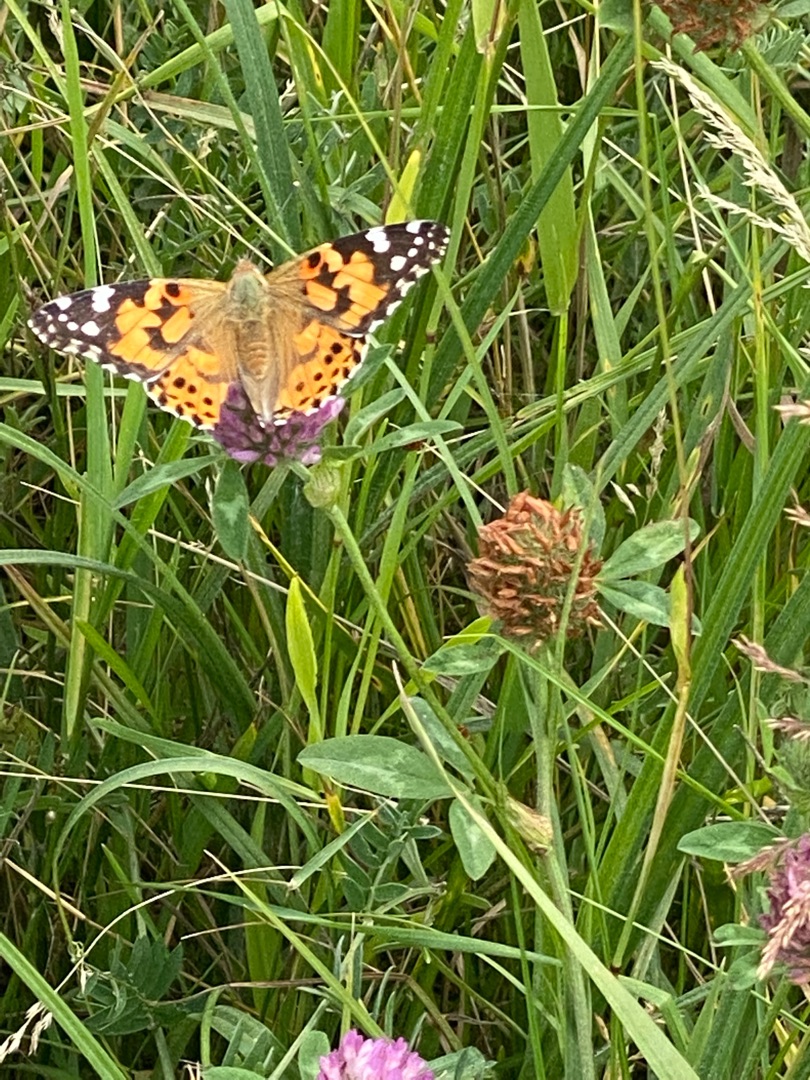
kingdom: Animalia
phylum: Arthropoda
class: Insecta
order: Lepidoptera
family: Nymphalidae
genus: Vanessa
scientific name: Vanessa cardui
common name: Tidselsommerfugl
